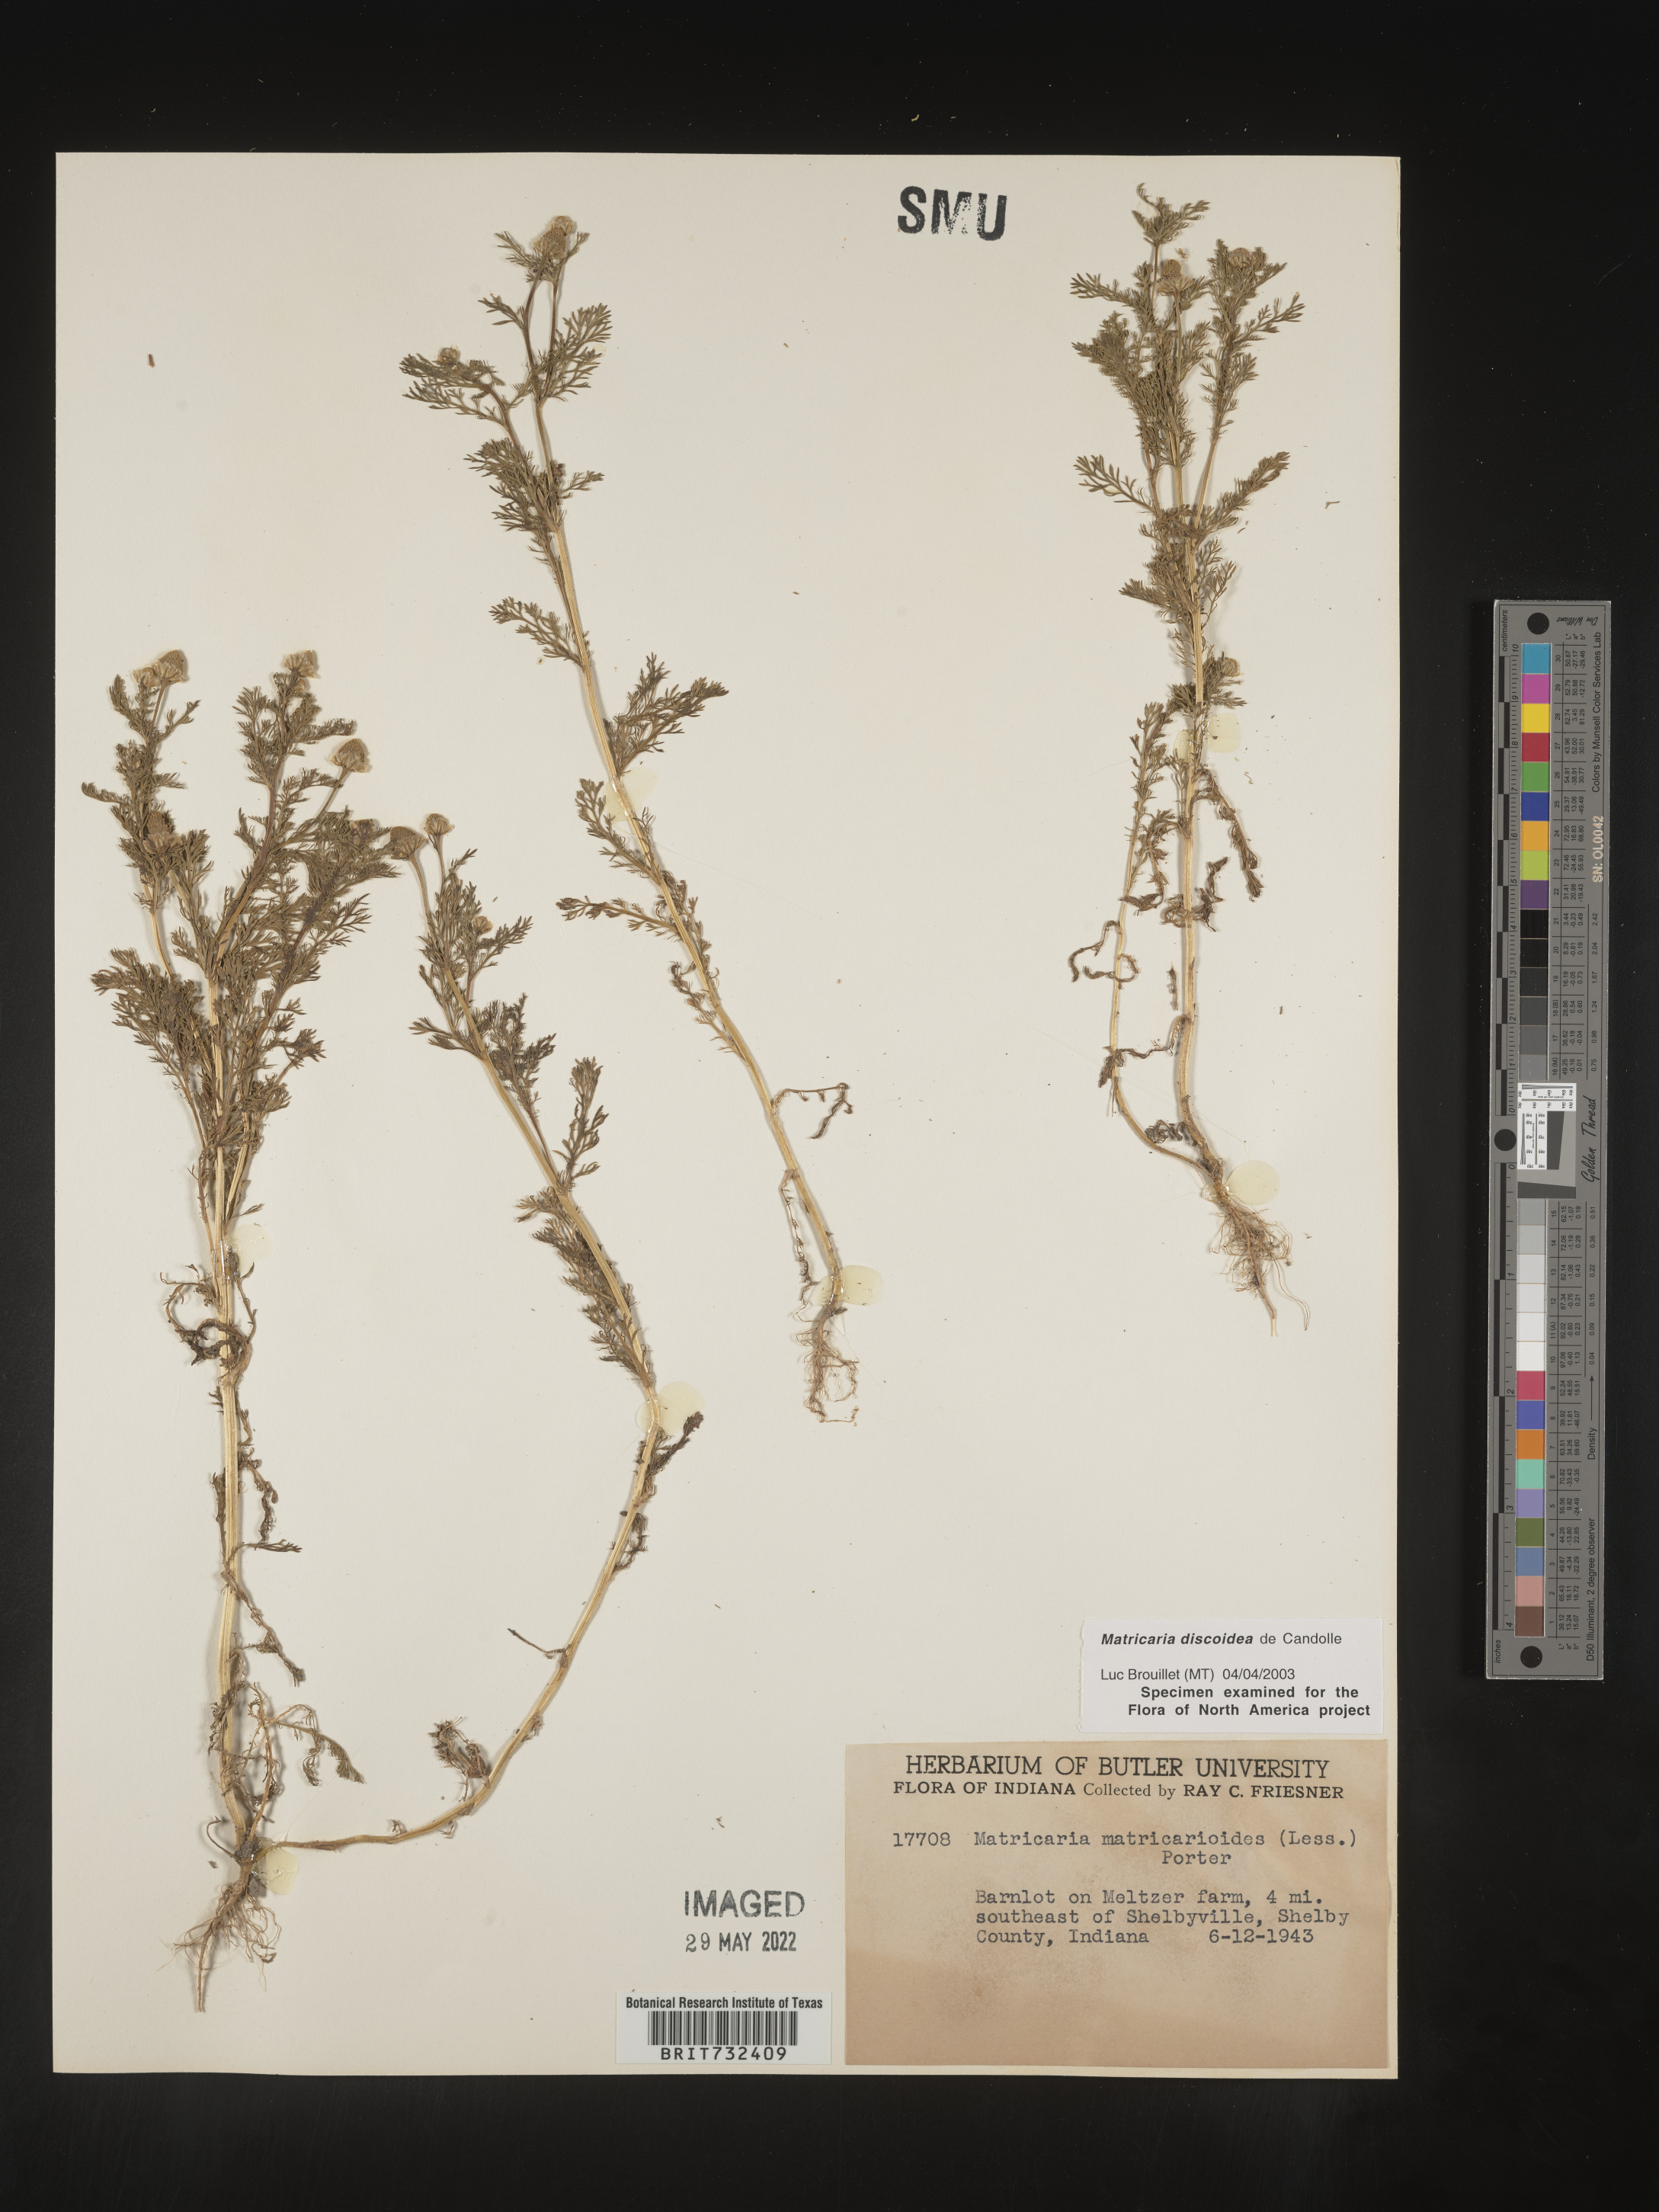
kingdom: Plantae
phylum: Tracheophyta
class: Magnoliopsida
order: Asterales
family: Asteraceae
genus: Matricaria
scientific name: Matricaria discoidea
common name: Disc mayweed
